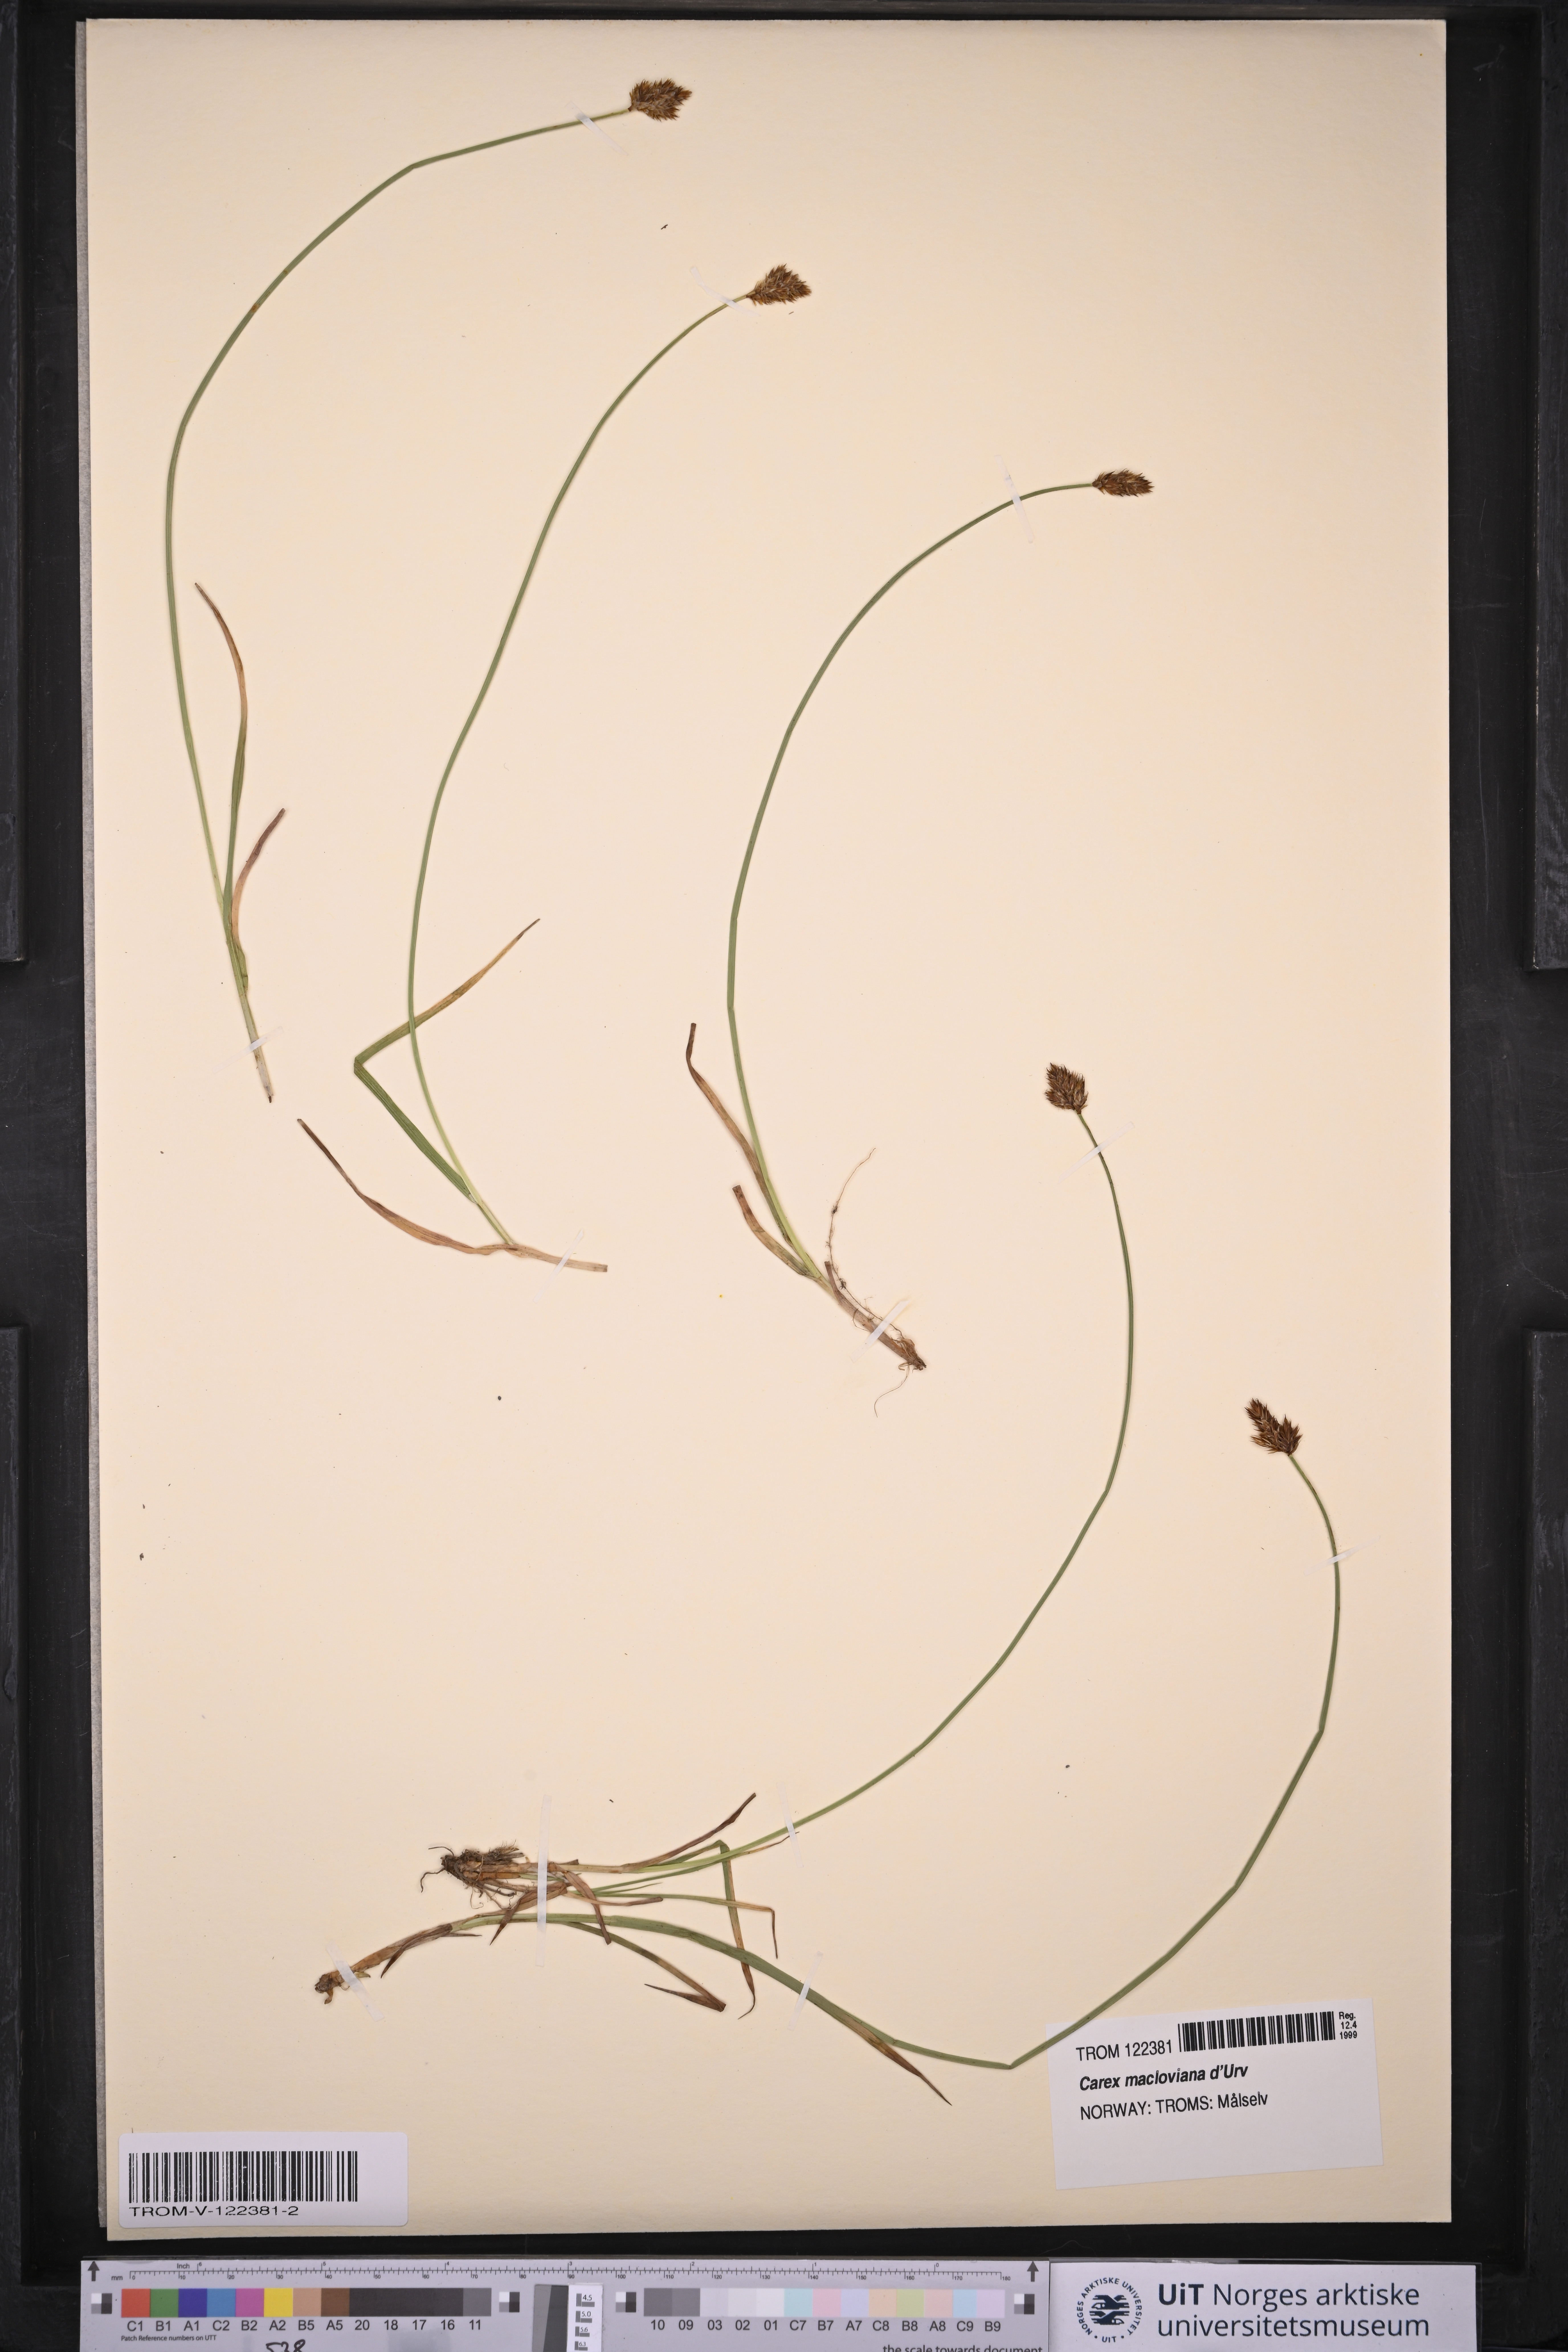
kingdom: Plantae
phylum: Tracheophyta
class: Liliopsida
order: Poales
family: Cyperaceae
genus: Carex
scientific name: Carex macloviana
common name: Falkland island sedge
